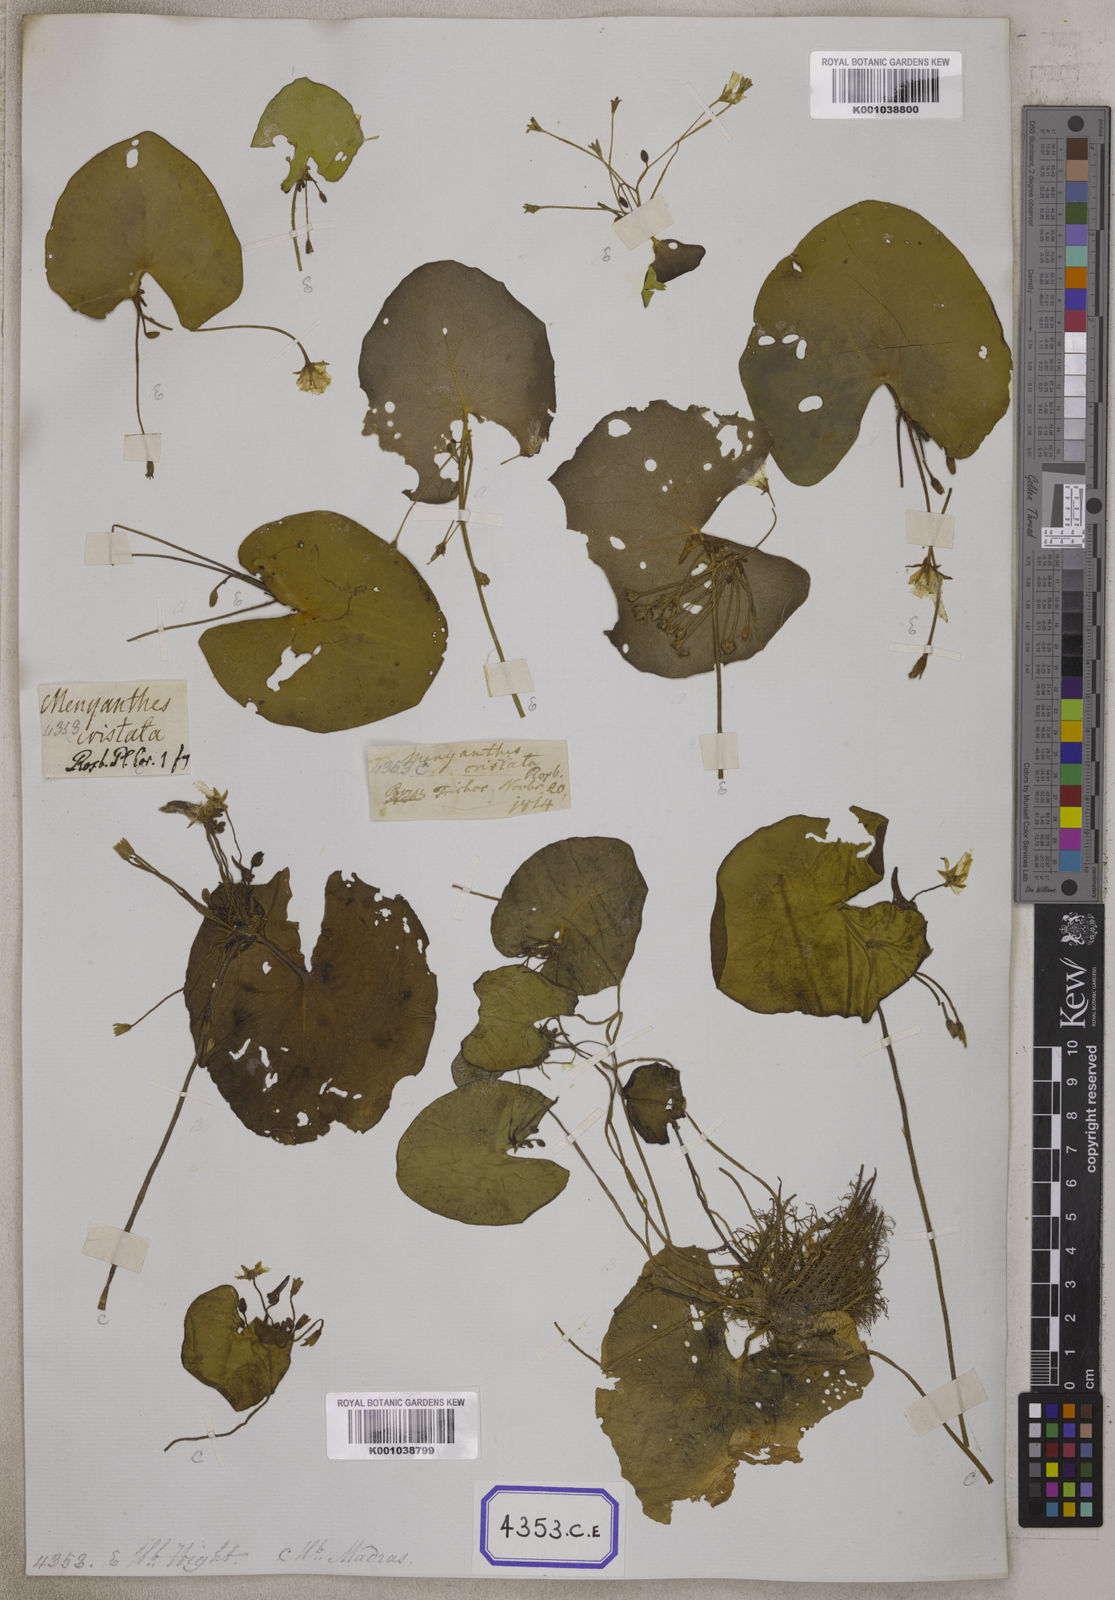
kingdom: Plantae
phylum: Tracheophyta
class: Magnoliopsida
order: Asterales
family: Menyanthaceae
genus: Nymphoides
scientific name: Nymphoides hydrophylla
